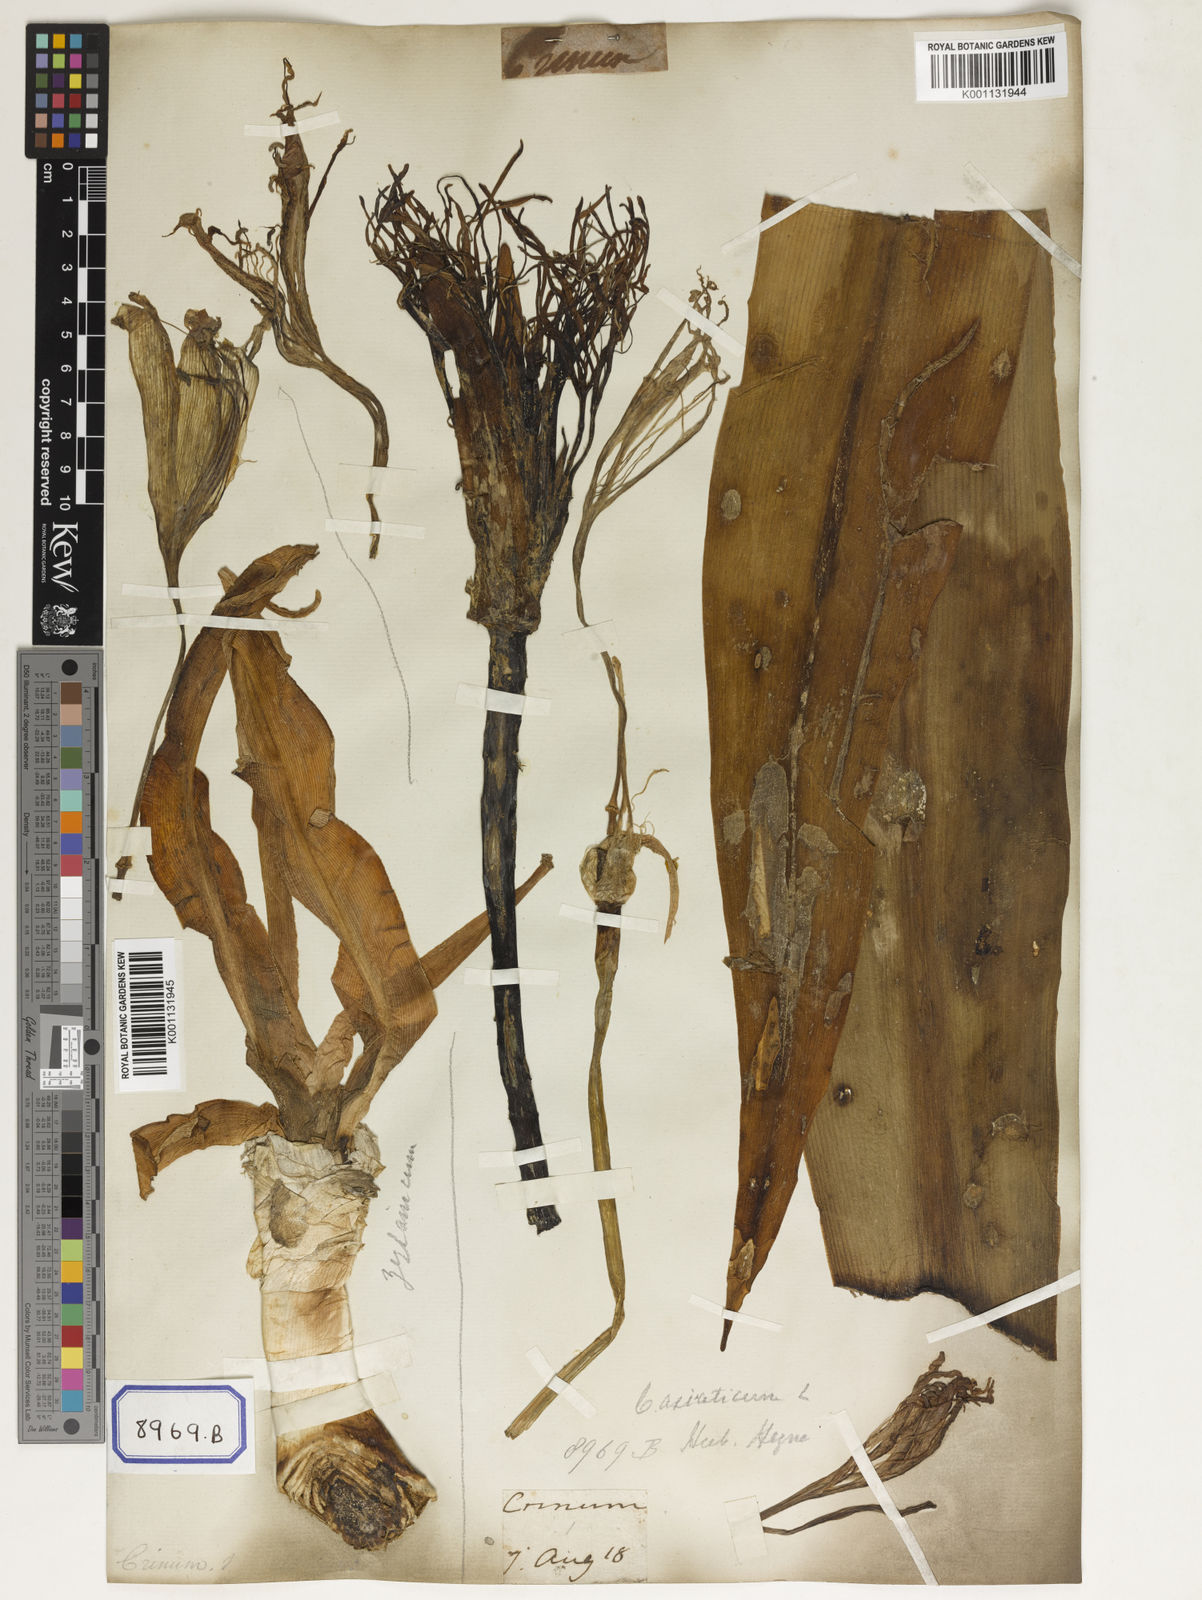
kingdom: Plantae
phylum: Tracheophyta
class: Liliopsida
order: Asparagales
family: Amaryllidaceae
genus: Crinum
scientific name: Crinum asiaticum
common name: Poisonbulb
